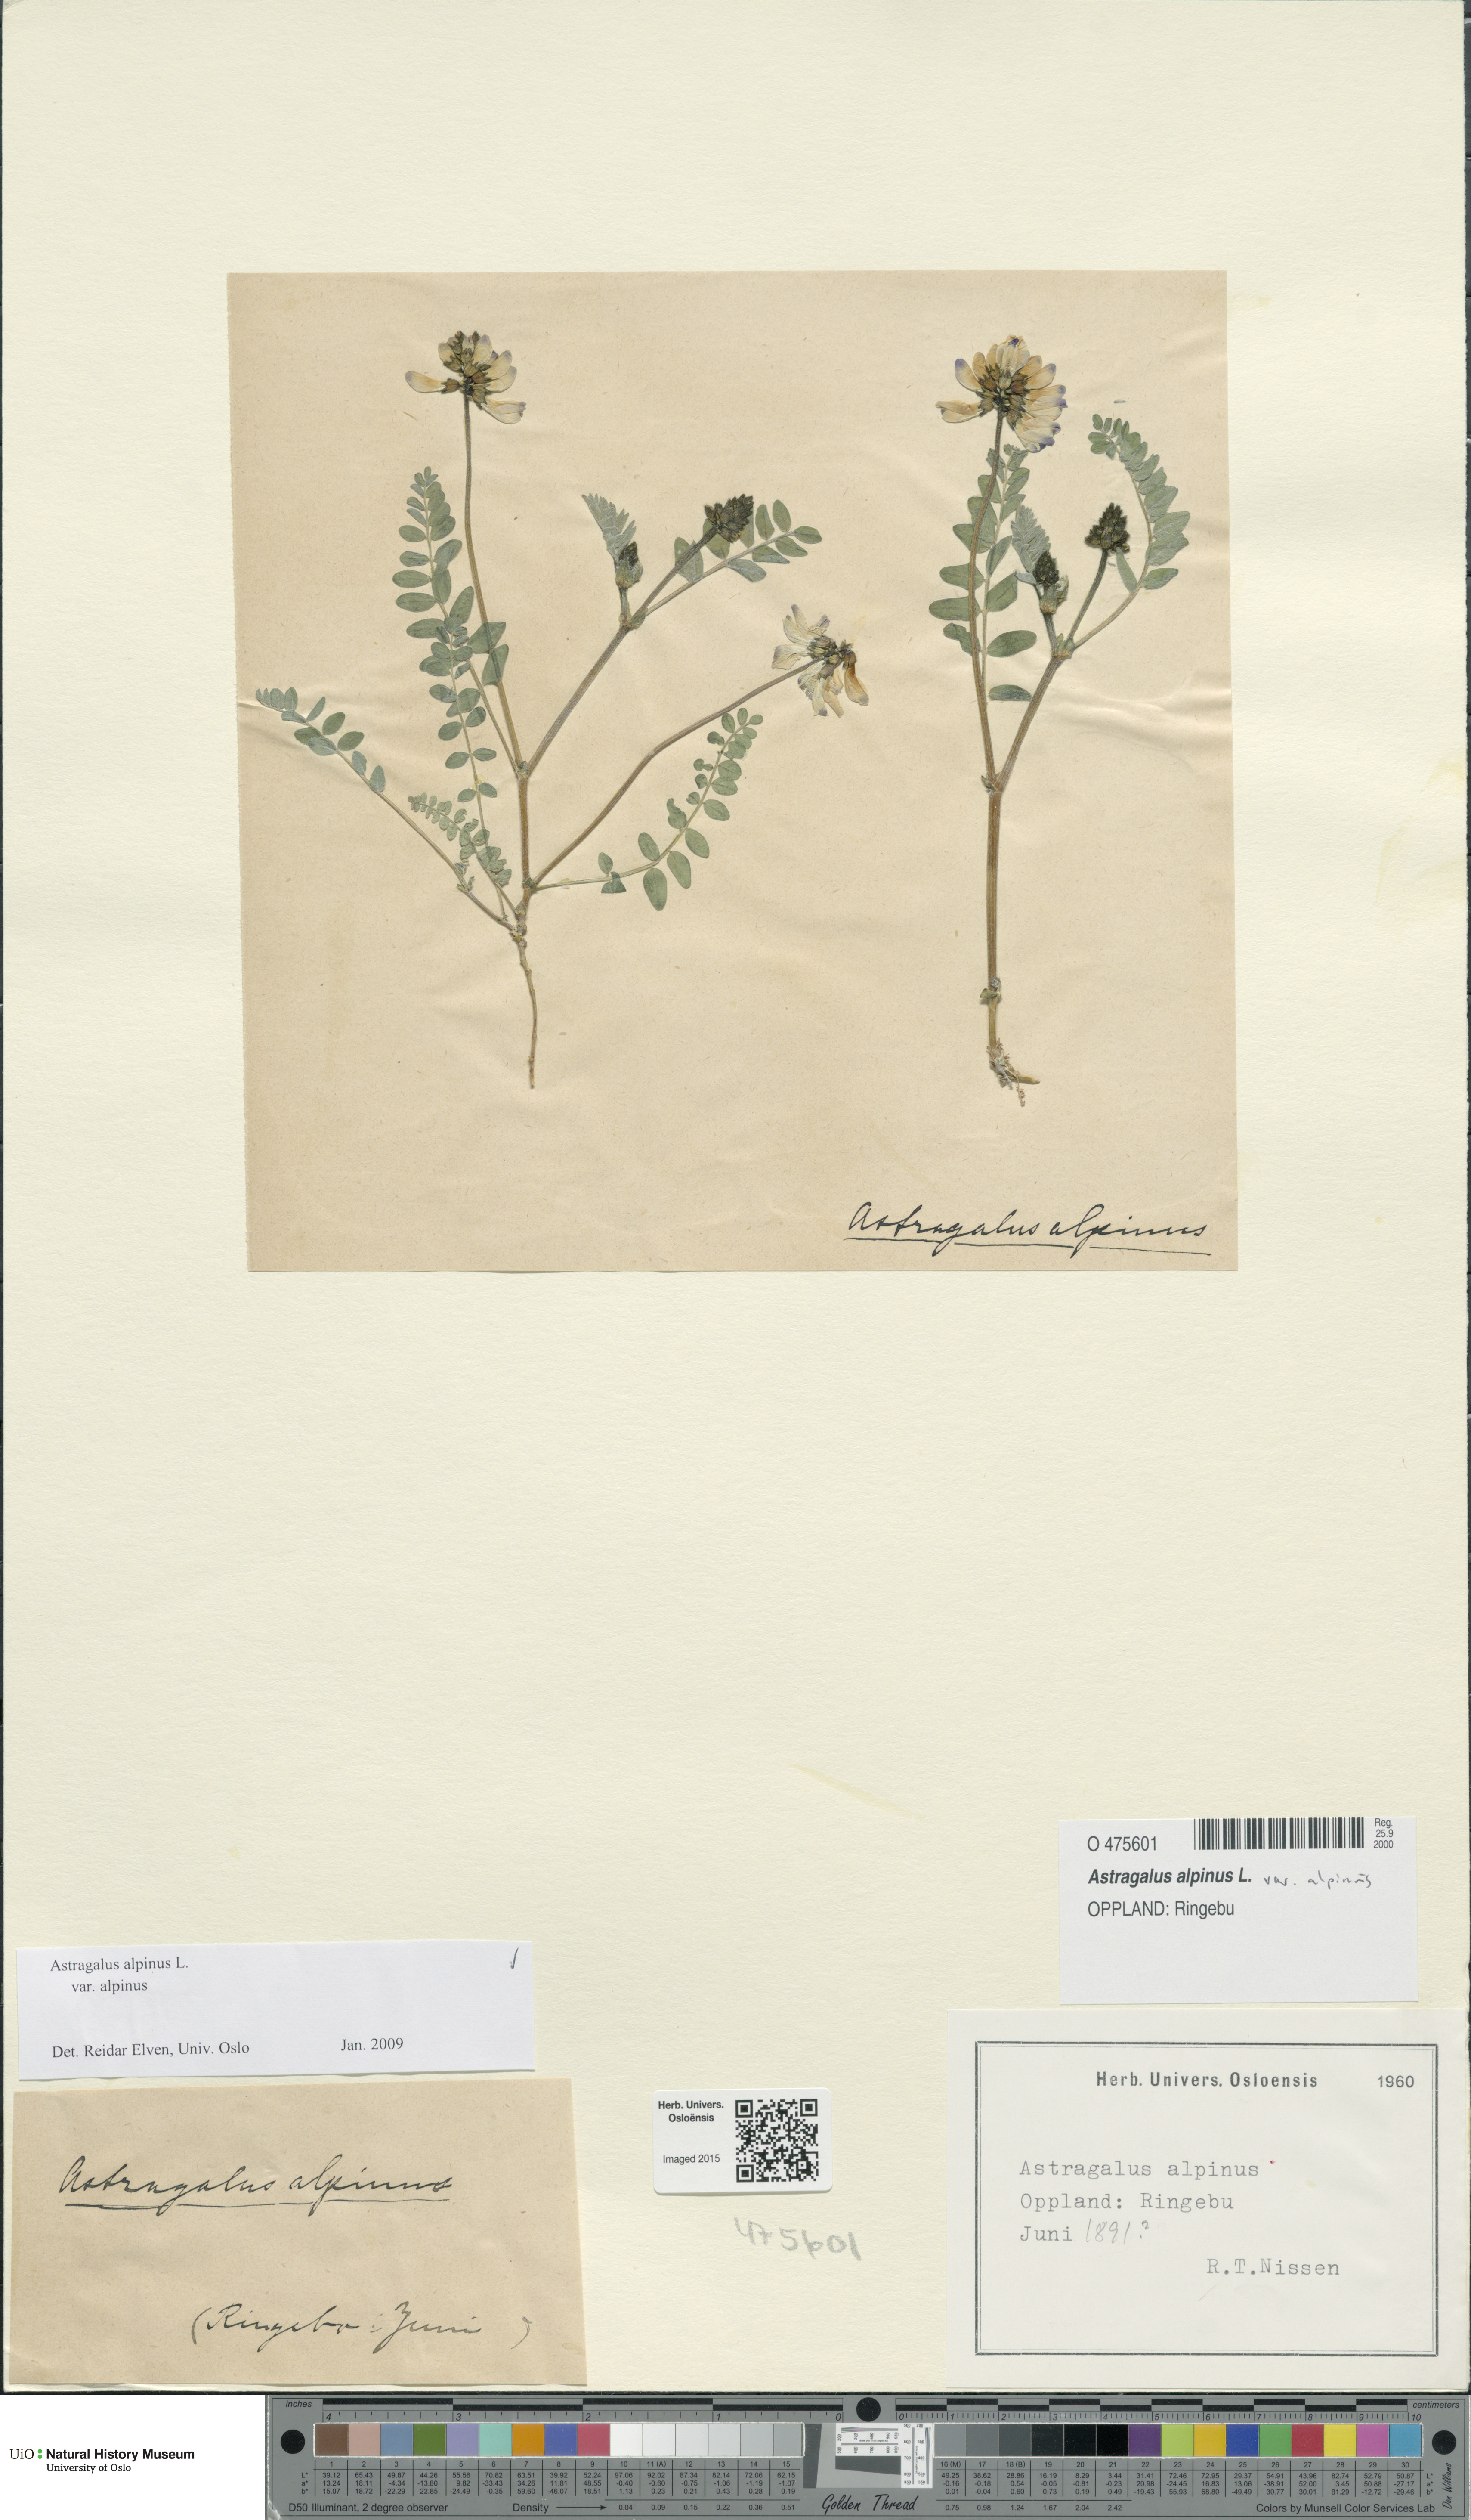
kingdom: Plantae
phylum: Tracheophyta
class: Magnoliopsida
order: Fabales
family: Fabaceae
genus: Astragalus
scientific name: Astragalus alpinus
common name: Alpine milk-vetch
